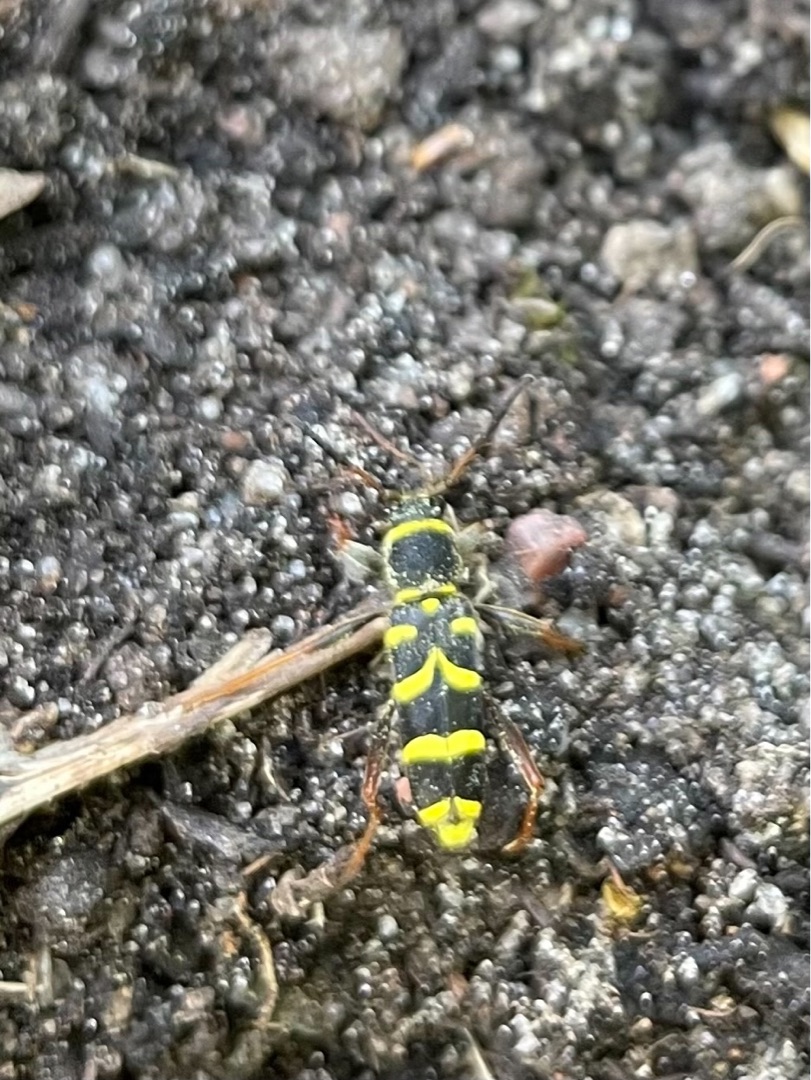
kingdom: Animalia
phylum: Arthropoda
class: Insecta
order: Coleoptera
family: Cerambycidae
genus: Clytus
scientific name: Clytus arietis
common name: Lille hvepsebuk
